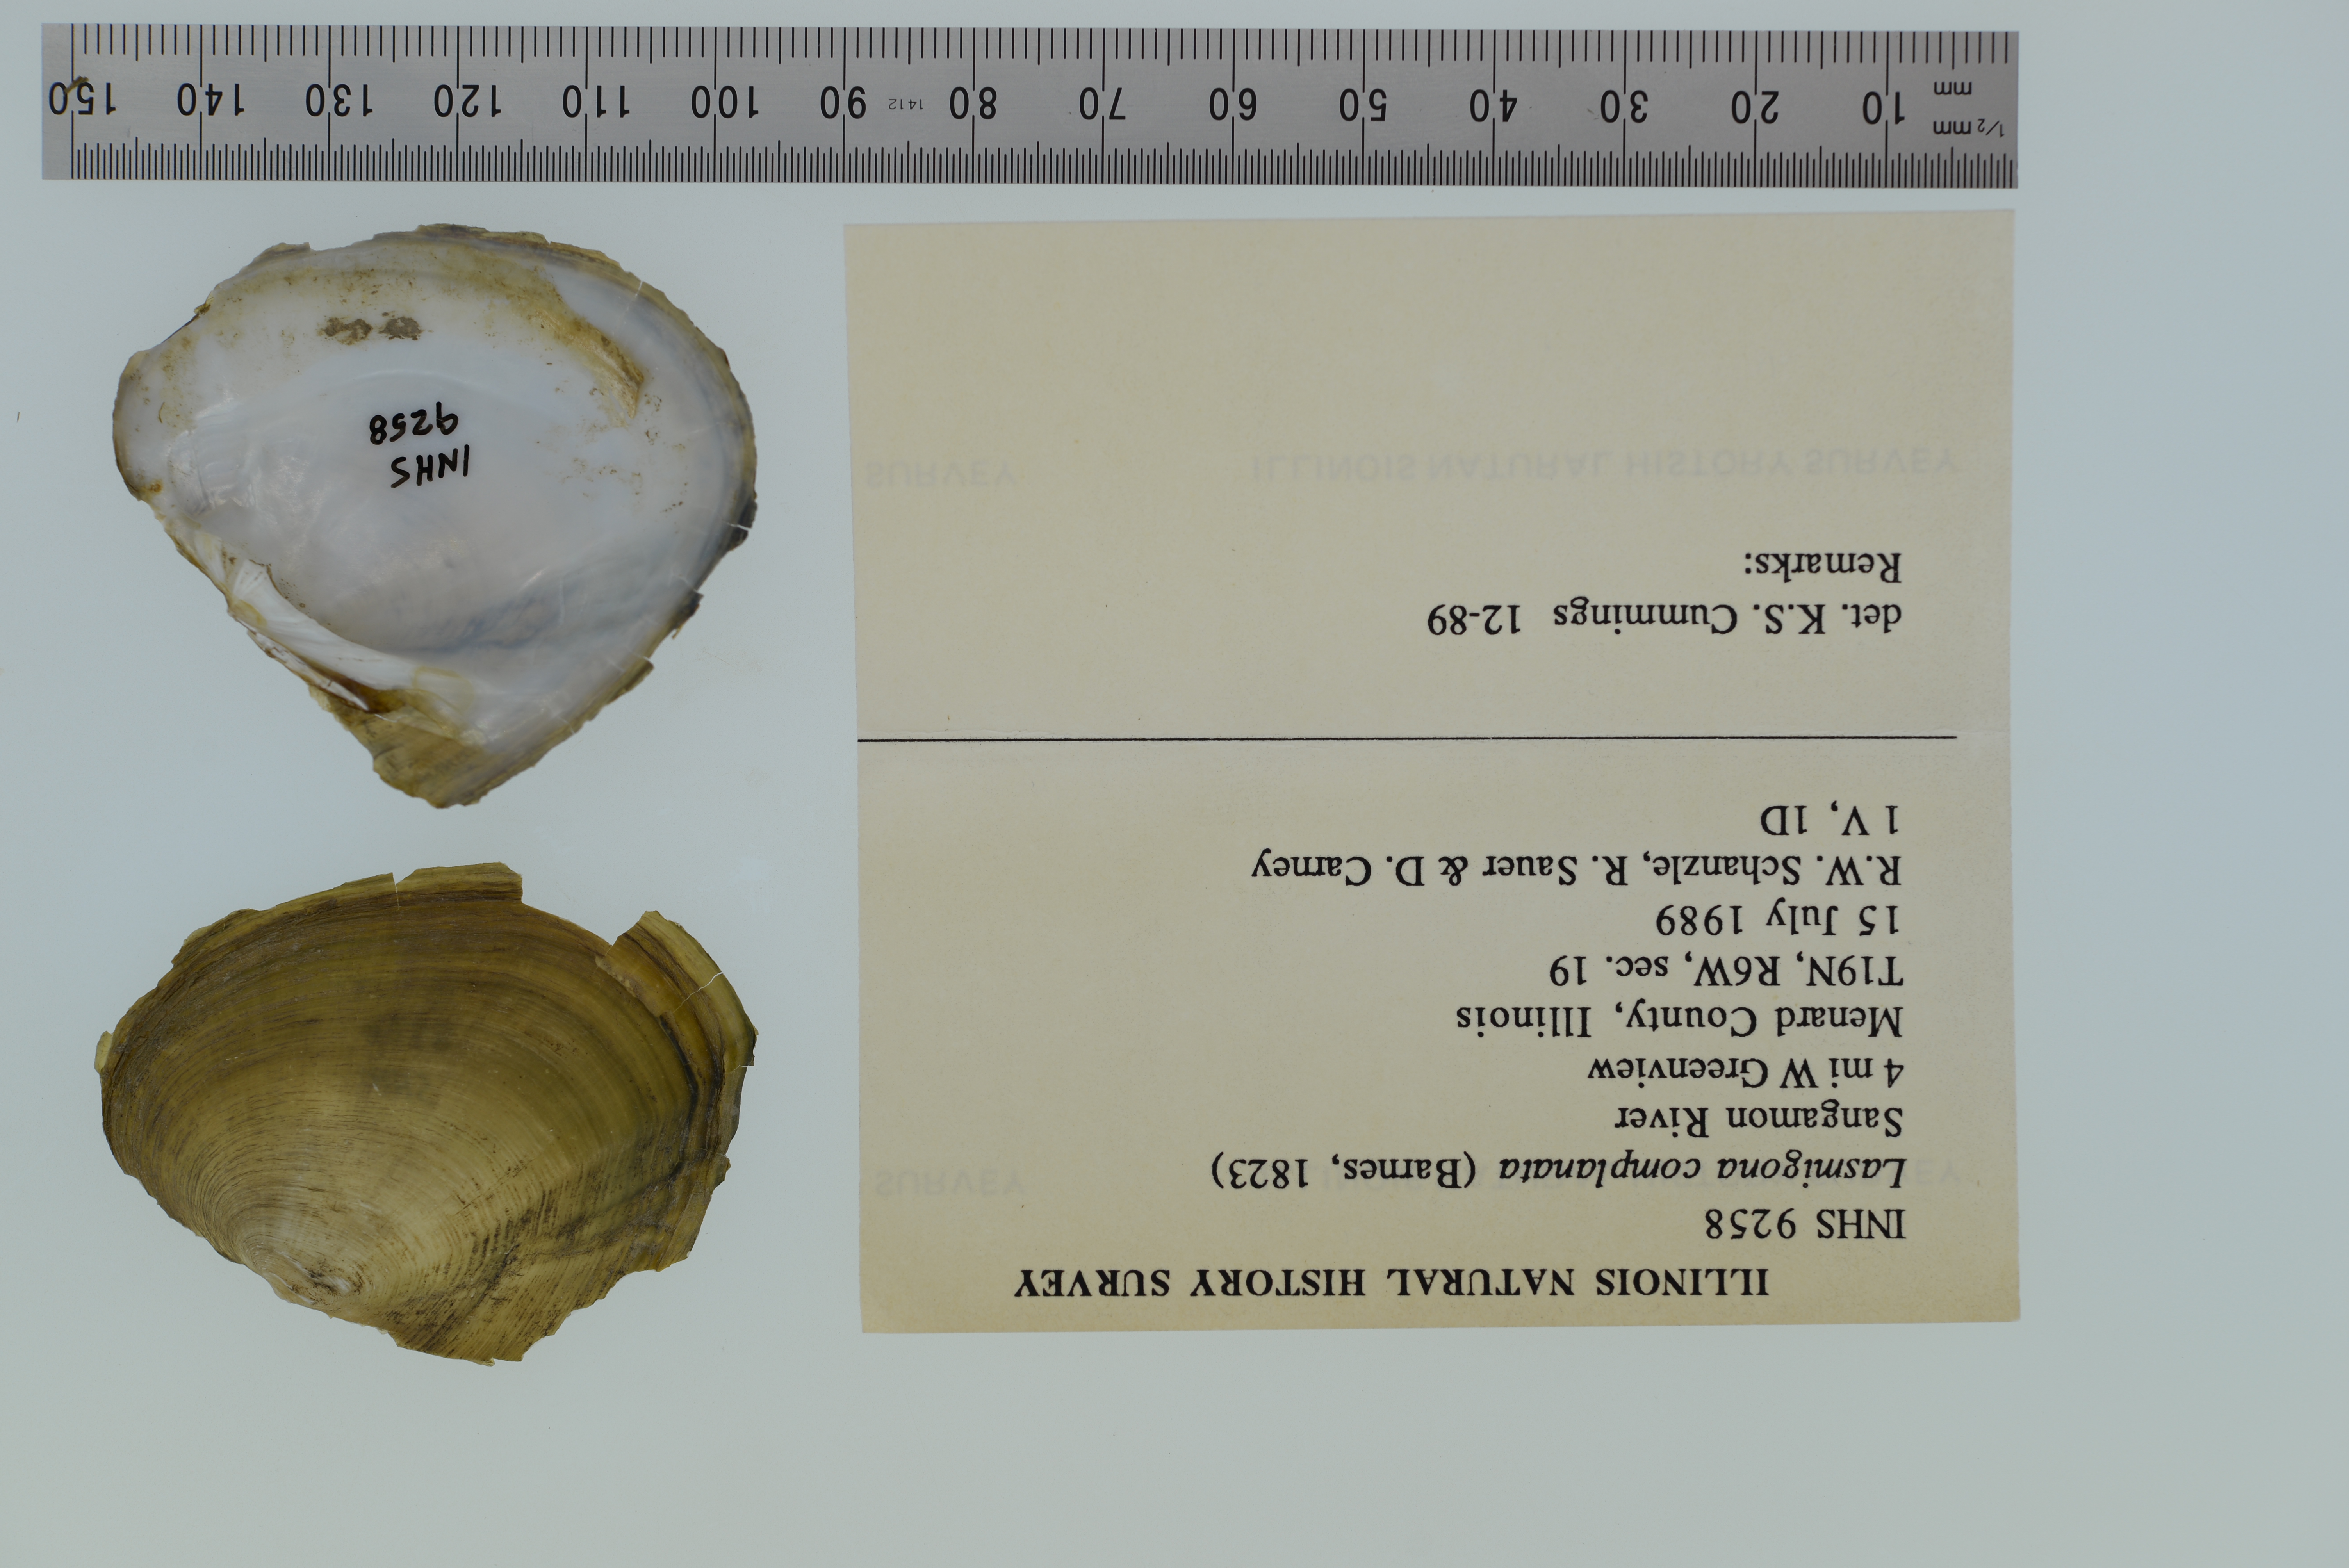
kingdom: Animalia
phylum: Mollusca
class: Bivalvia
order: Unionida
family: Unionidae
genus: Lasmigona
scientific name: Lasmigona complanata
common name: White heelsplitter
